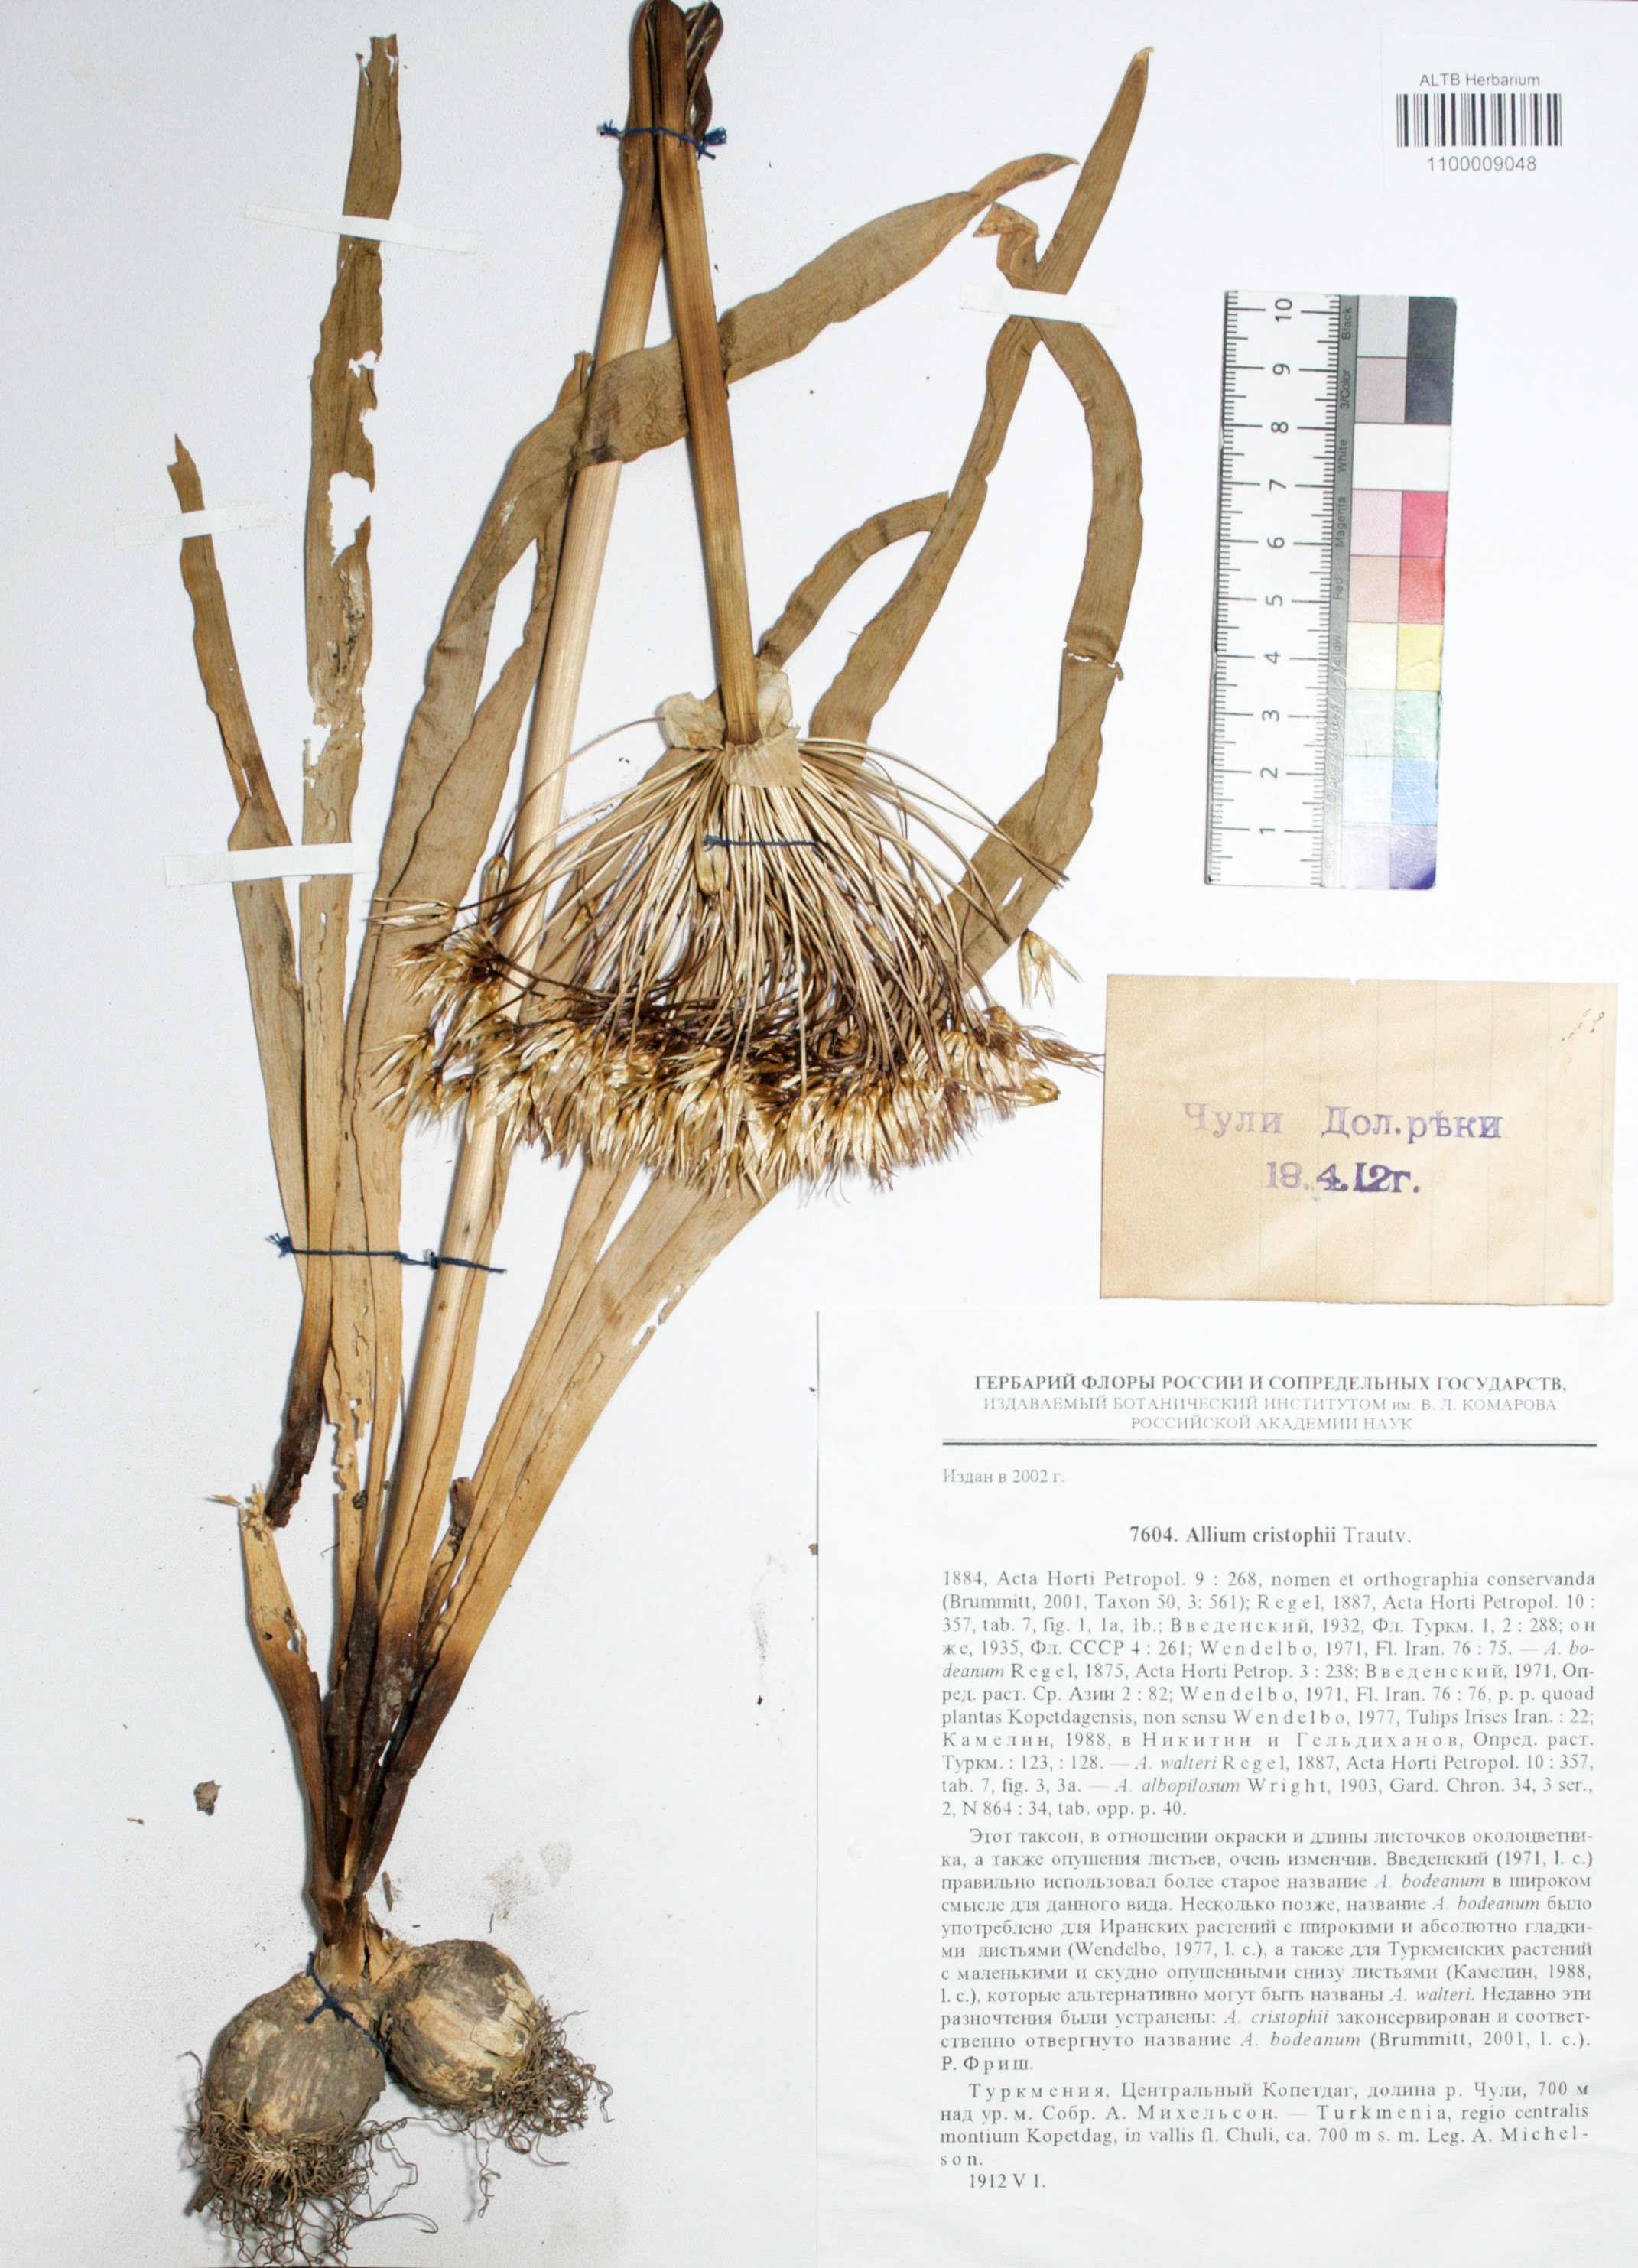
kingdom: Plantae
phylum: Tracheophyta
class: Liliopsida
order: Asparagales
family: Amaryllidaceae
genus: Allium
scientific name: Allium cristophii
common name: Persian onion
